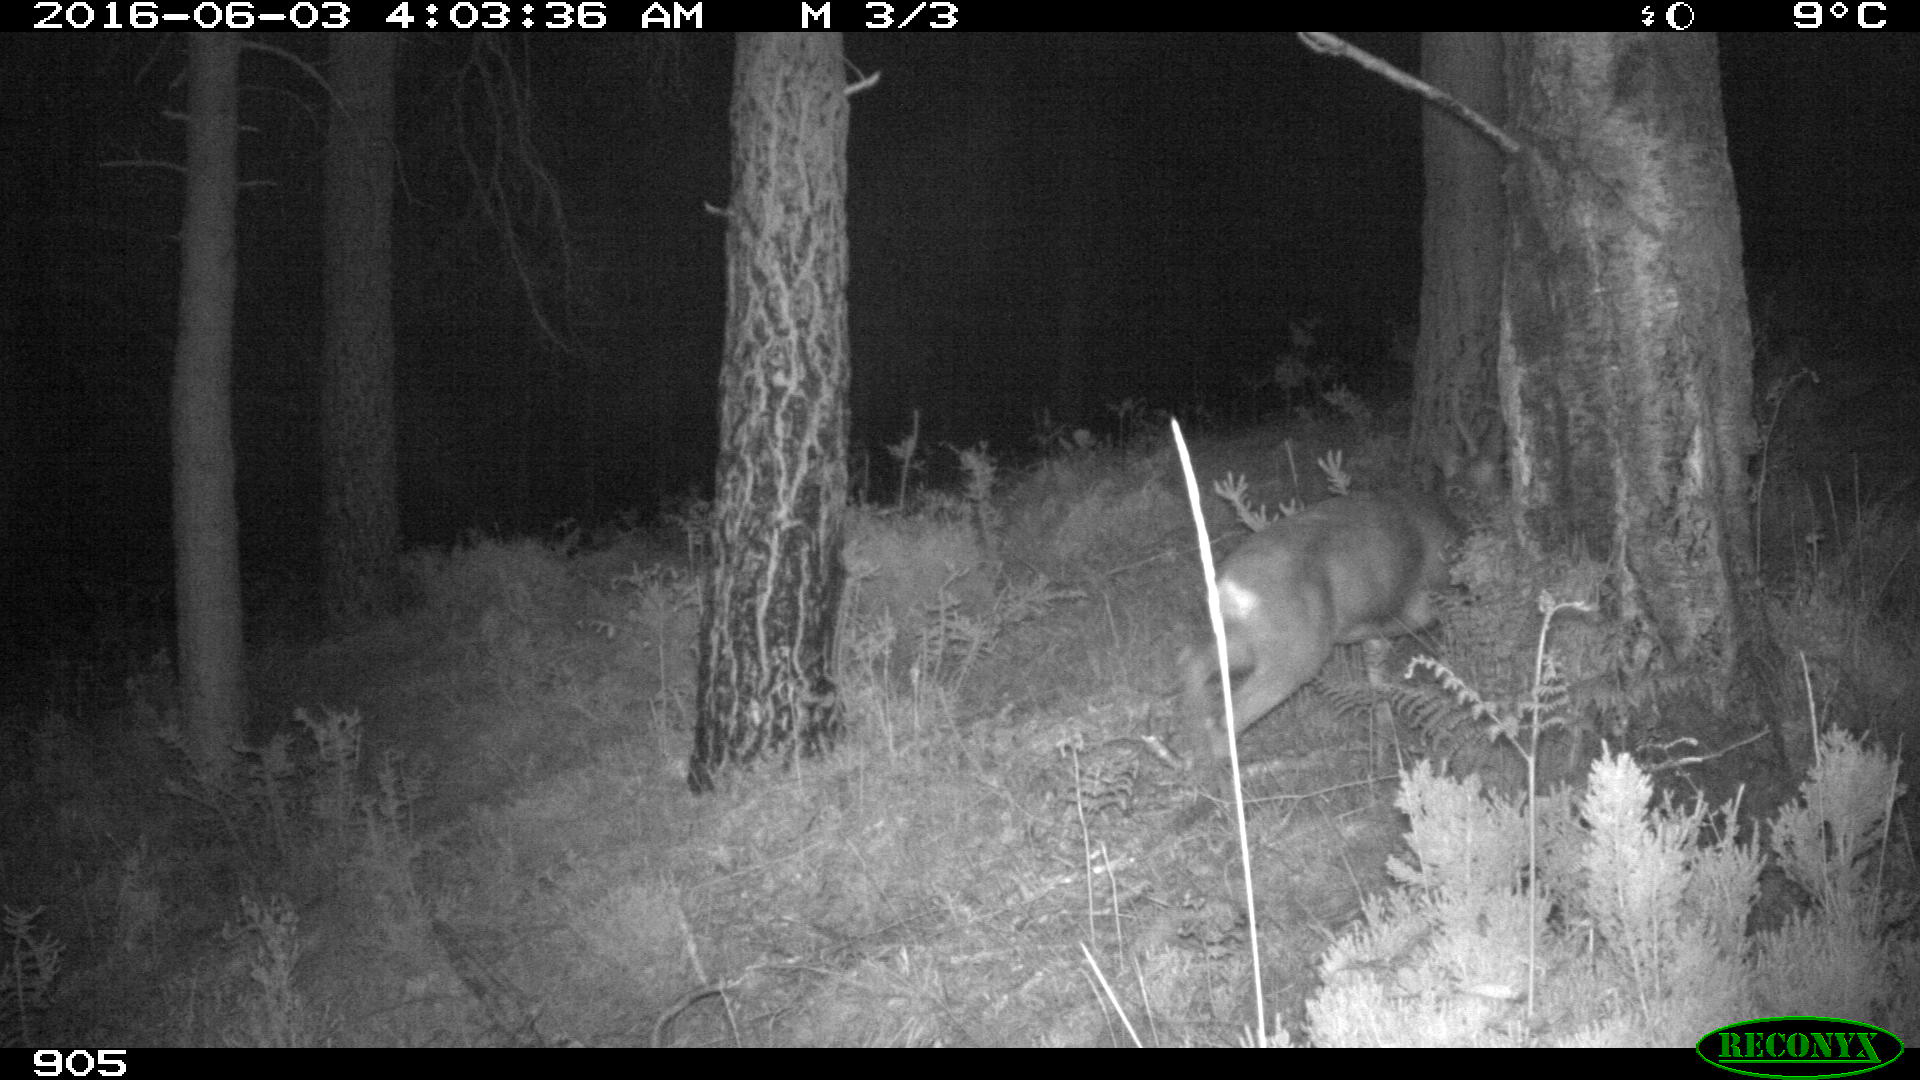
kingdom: Animalia
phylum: Chordata
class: Mammalia
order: Artiodactyla
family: Cervidae
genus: Capreolus
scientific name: Capreolus capreolus
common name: Western roe deer
